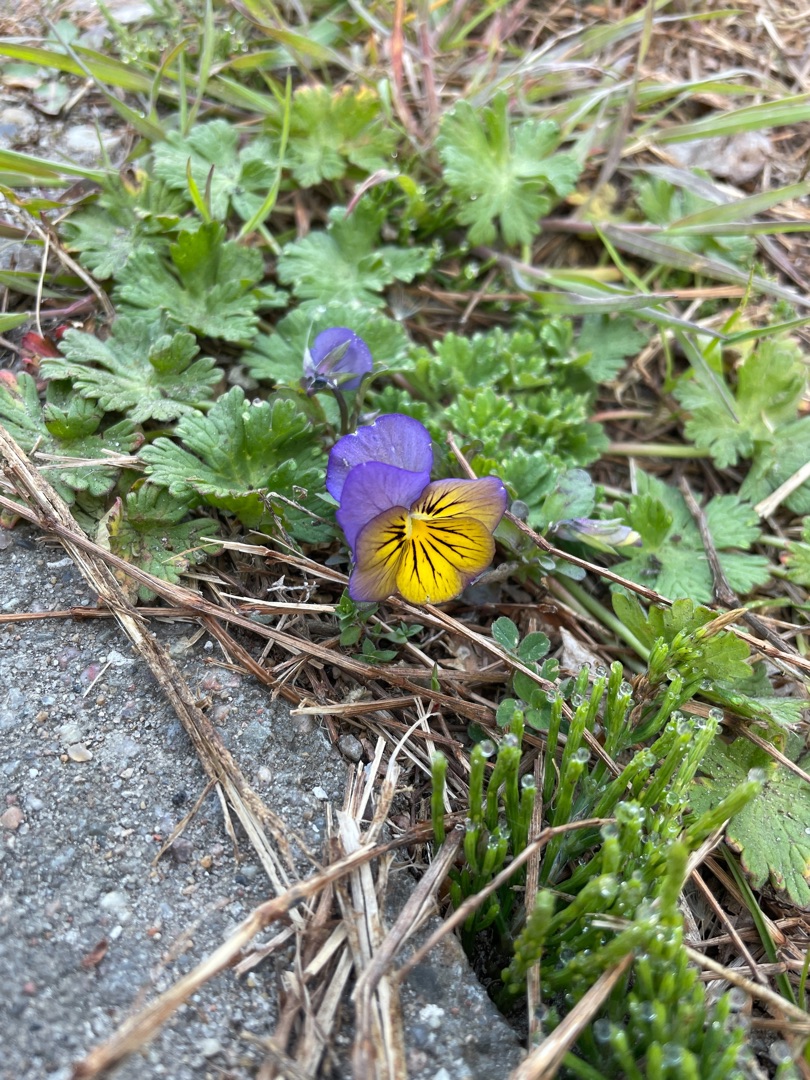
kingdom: Plantae
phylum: Tracheophyta
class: Magnoliopsida
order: Malpighiales
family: Violaceae
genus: Viola
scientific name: Viola wittrockiana
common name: Have-stedmoderblomst
